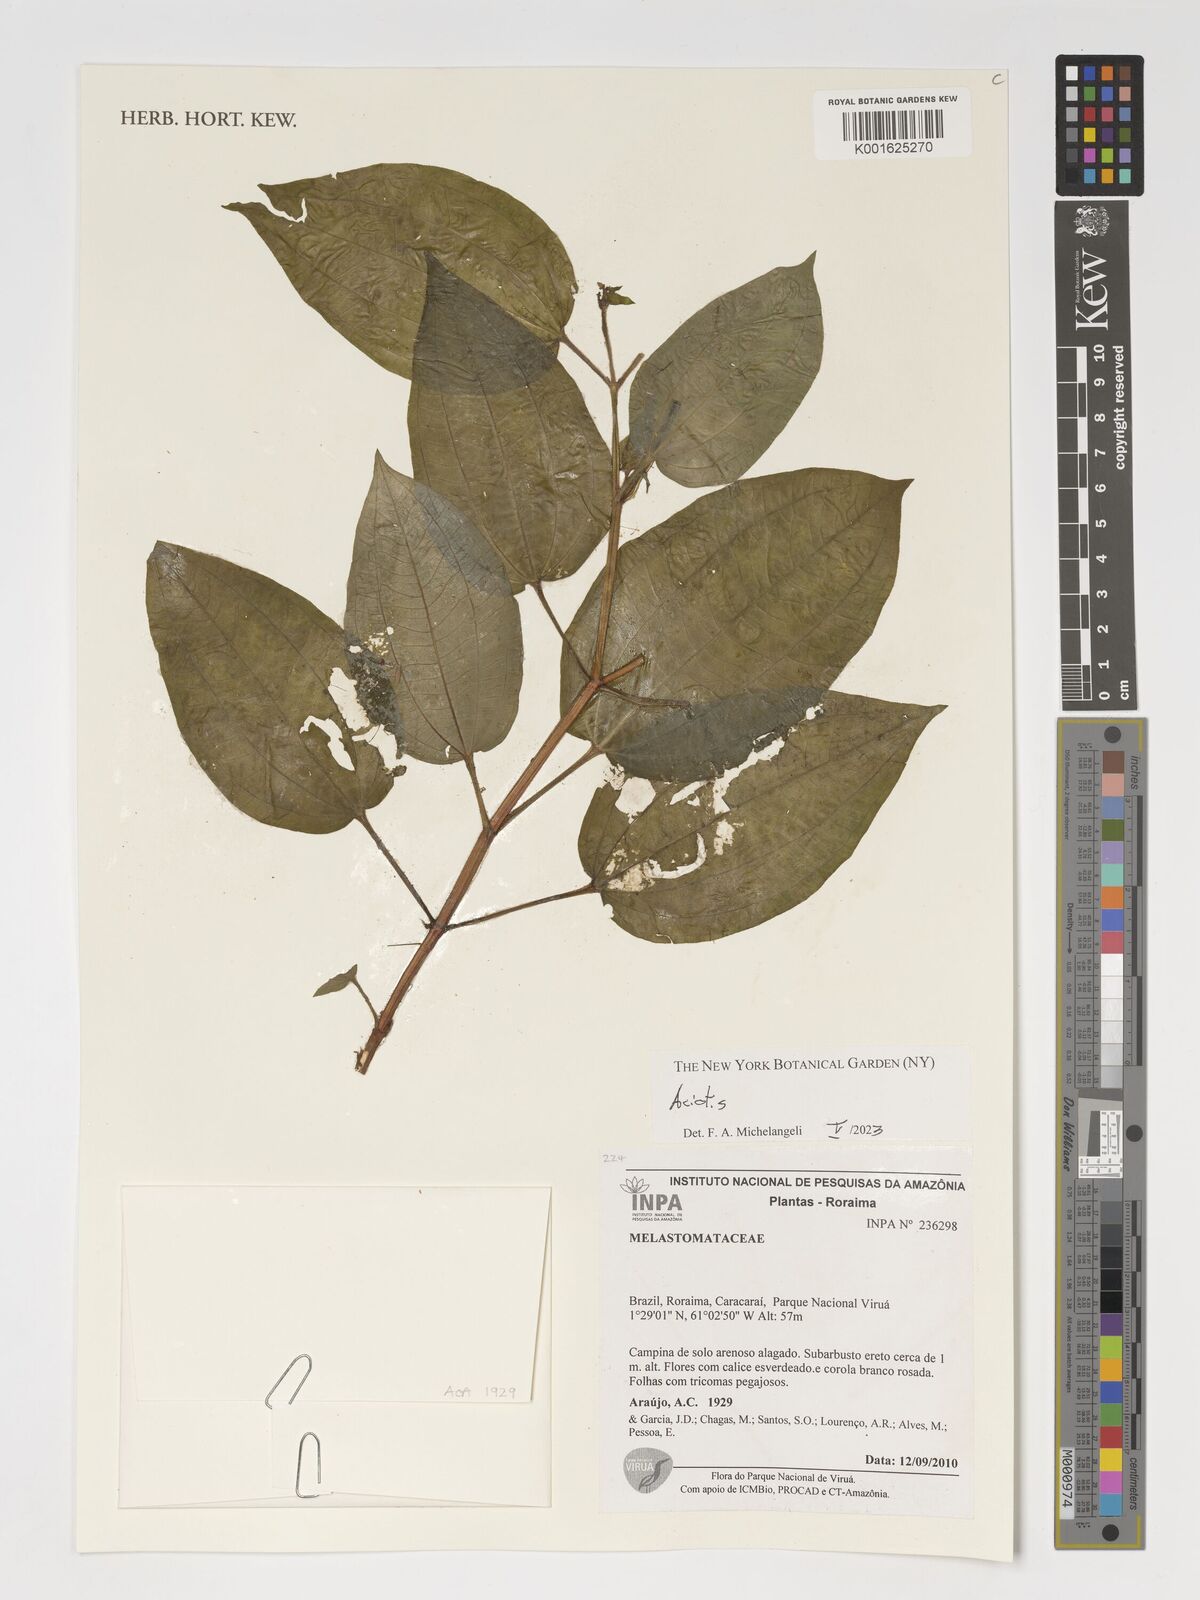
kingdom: Plantae
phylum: Tracheophyta
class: Magnoliopsida
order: Myrtales
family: Melastomataceae
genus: Aciotis
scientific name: Aciotis
